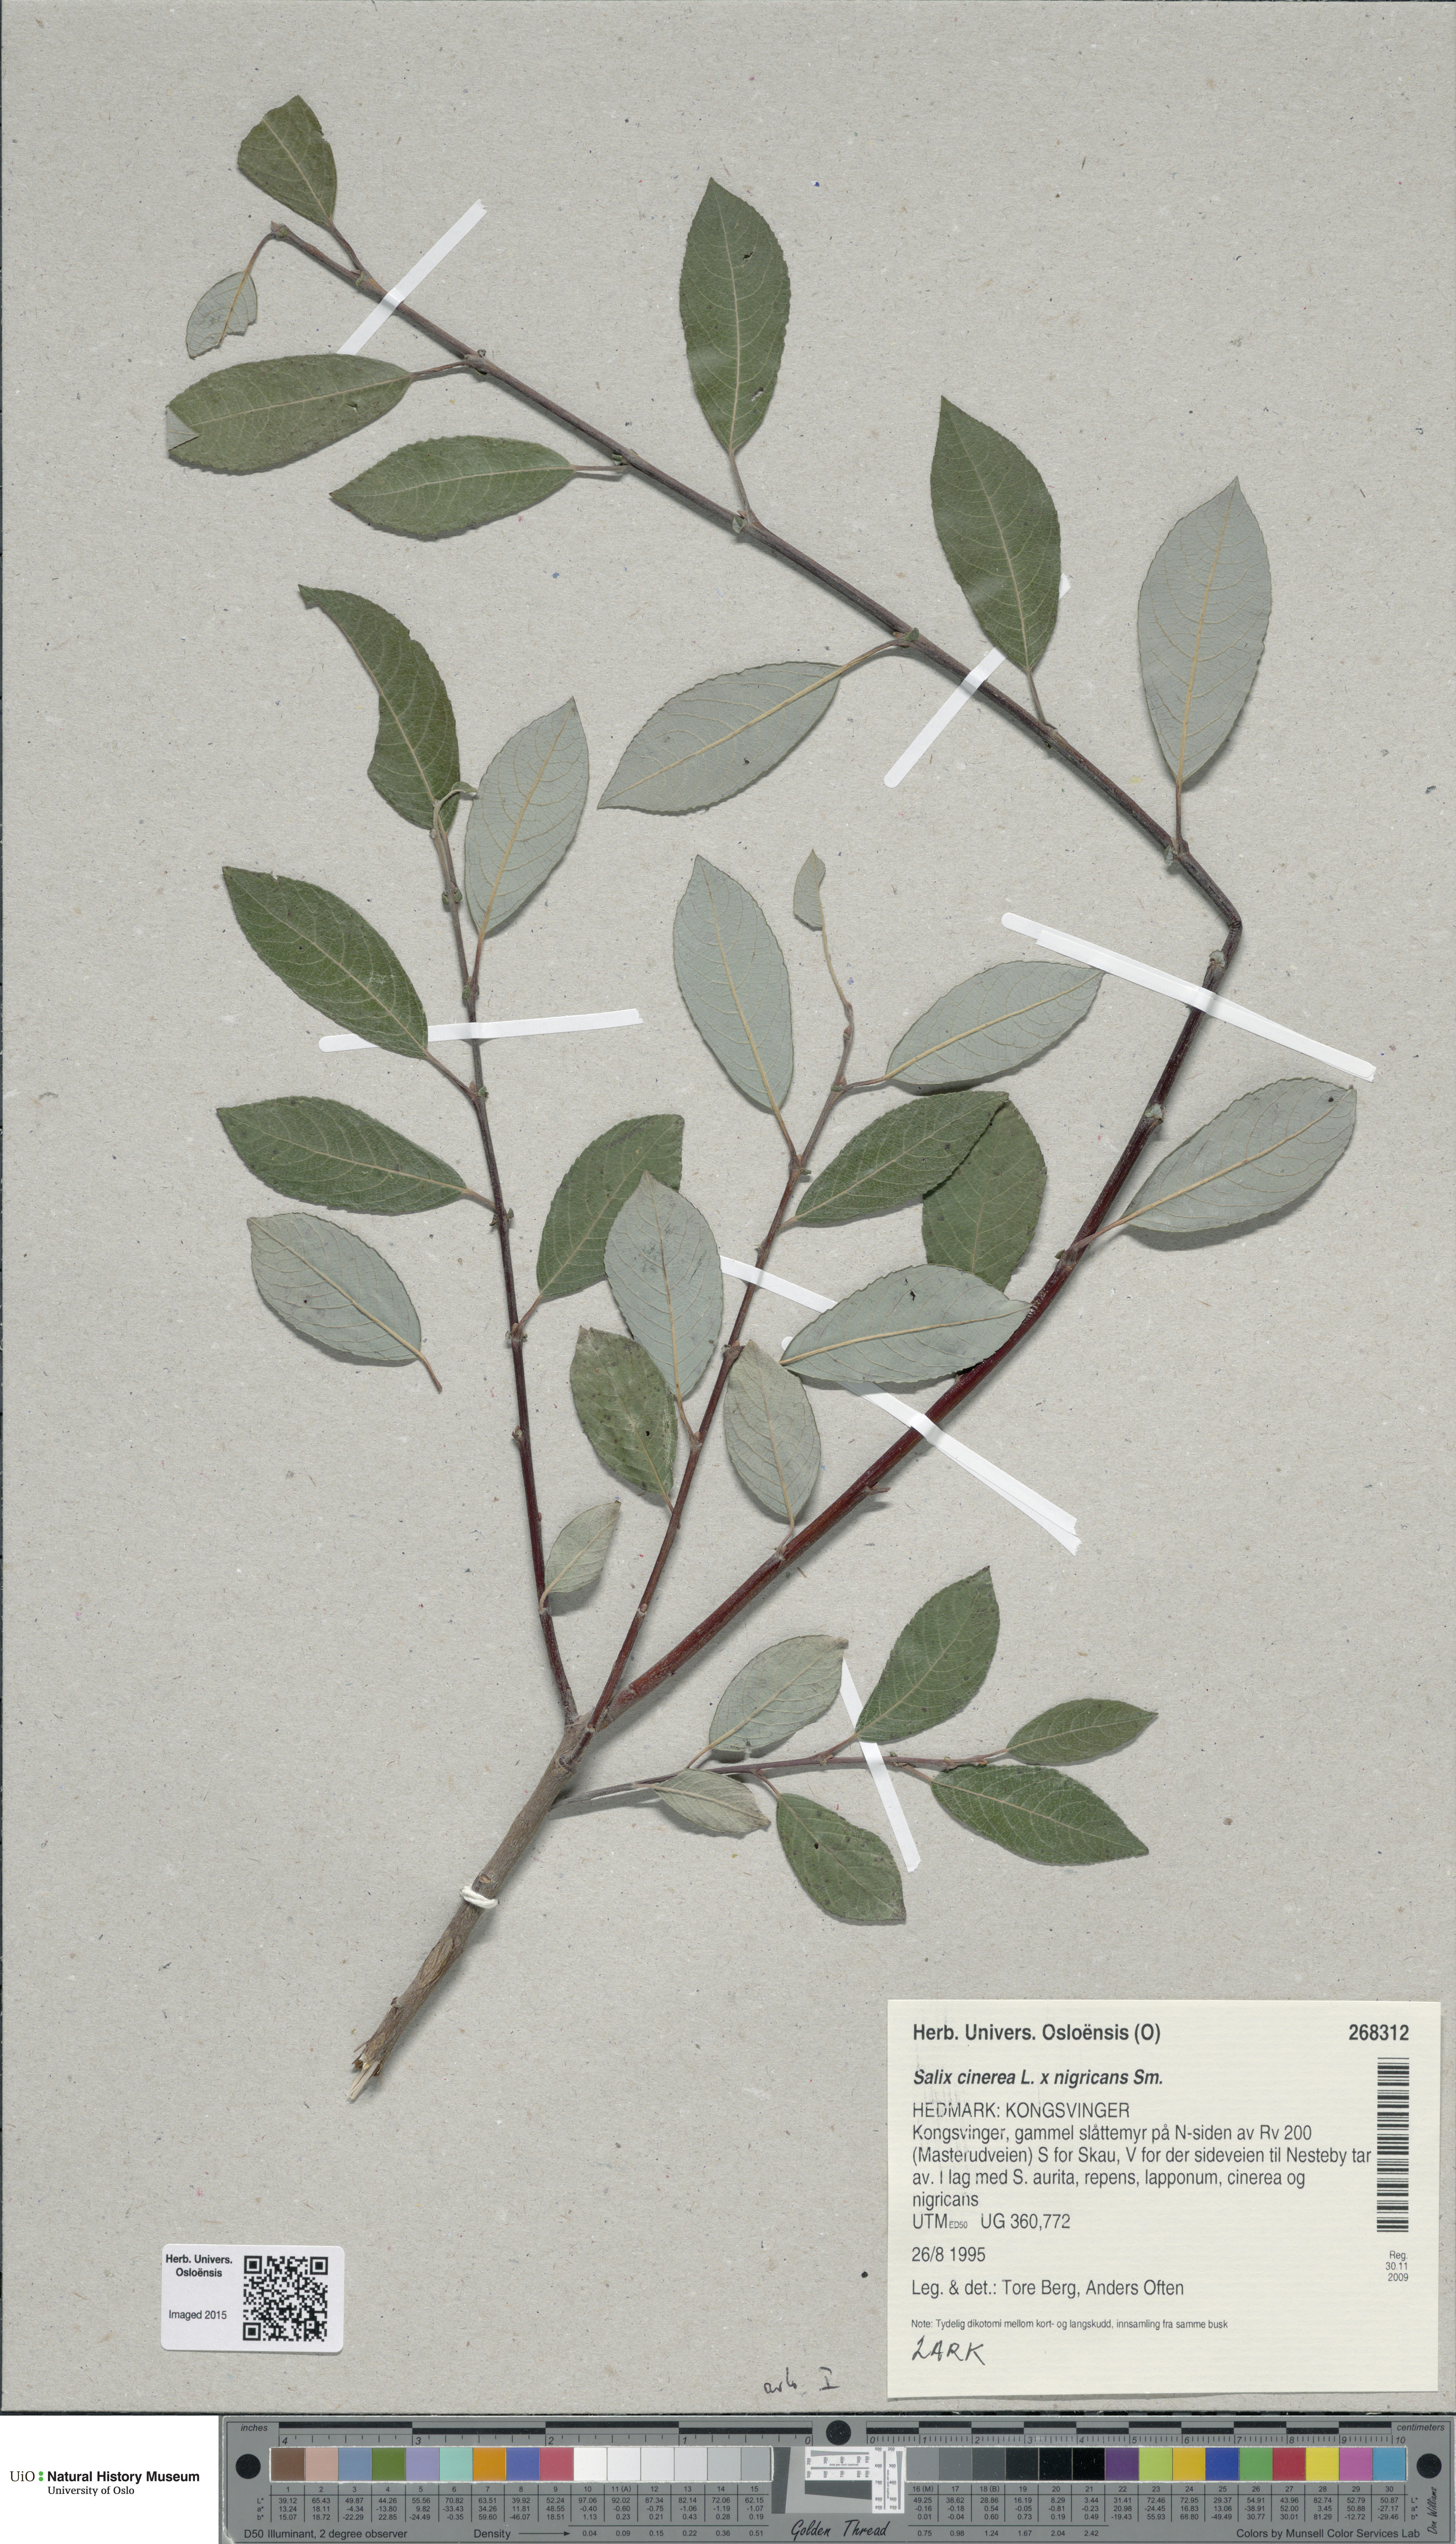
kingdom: Plantae
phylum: Tracheophyta
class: Magnoliopsida
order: Malpighiales
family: Salicaceae
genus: Salix
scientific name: Salix
